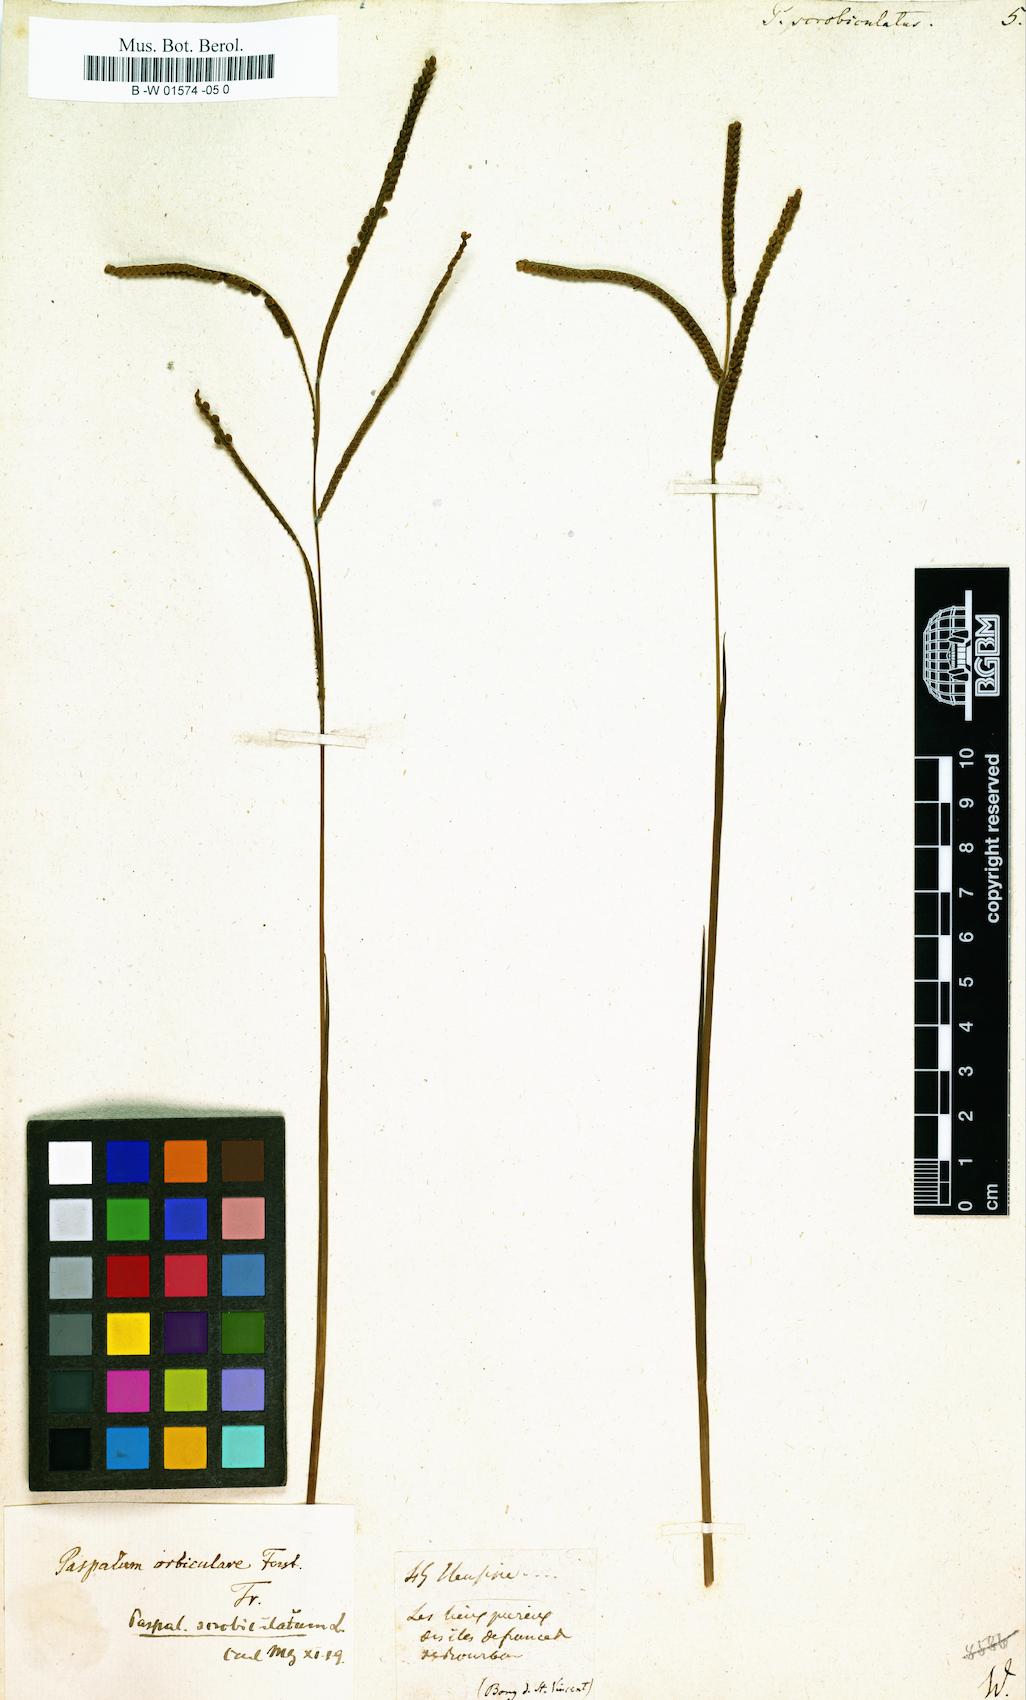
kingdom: Plantae
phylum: Tracheophyta
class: Liliopsida
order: Poales
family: Poaceae
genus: Paspalus
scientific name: Paspalus
